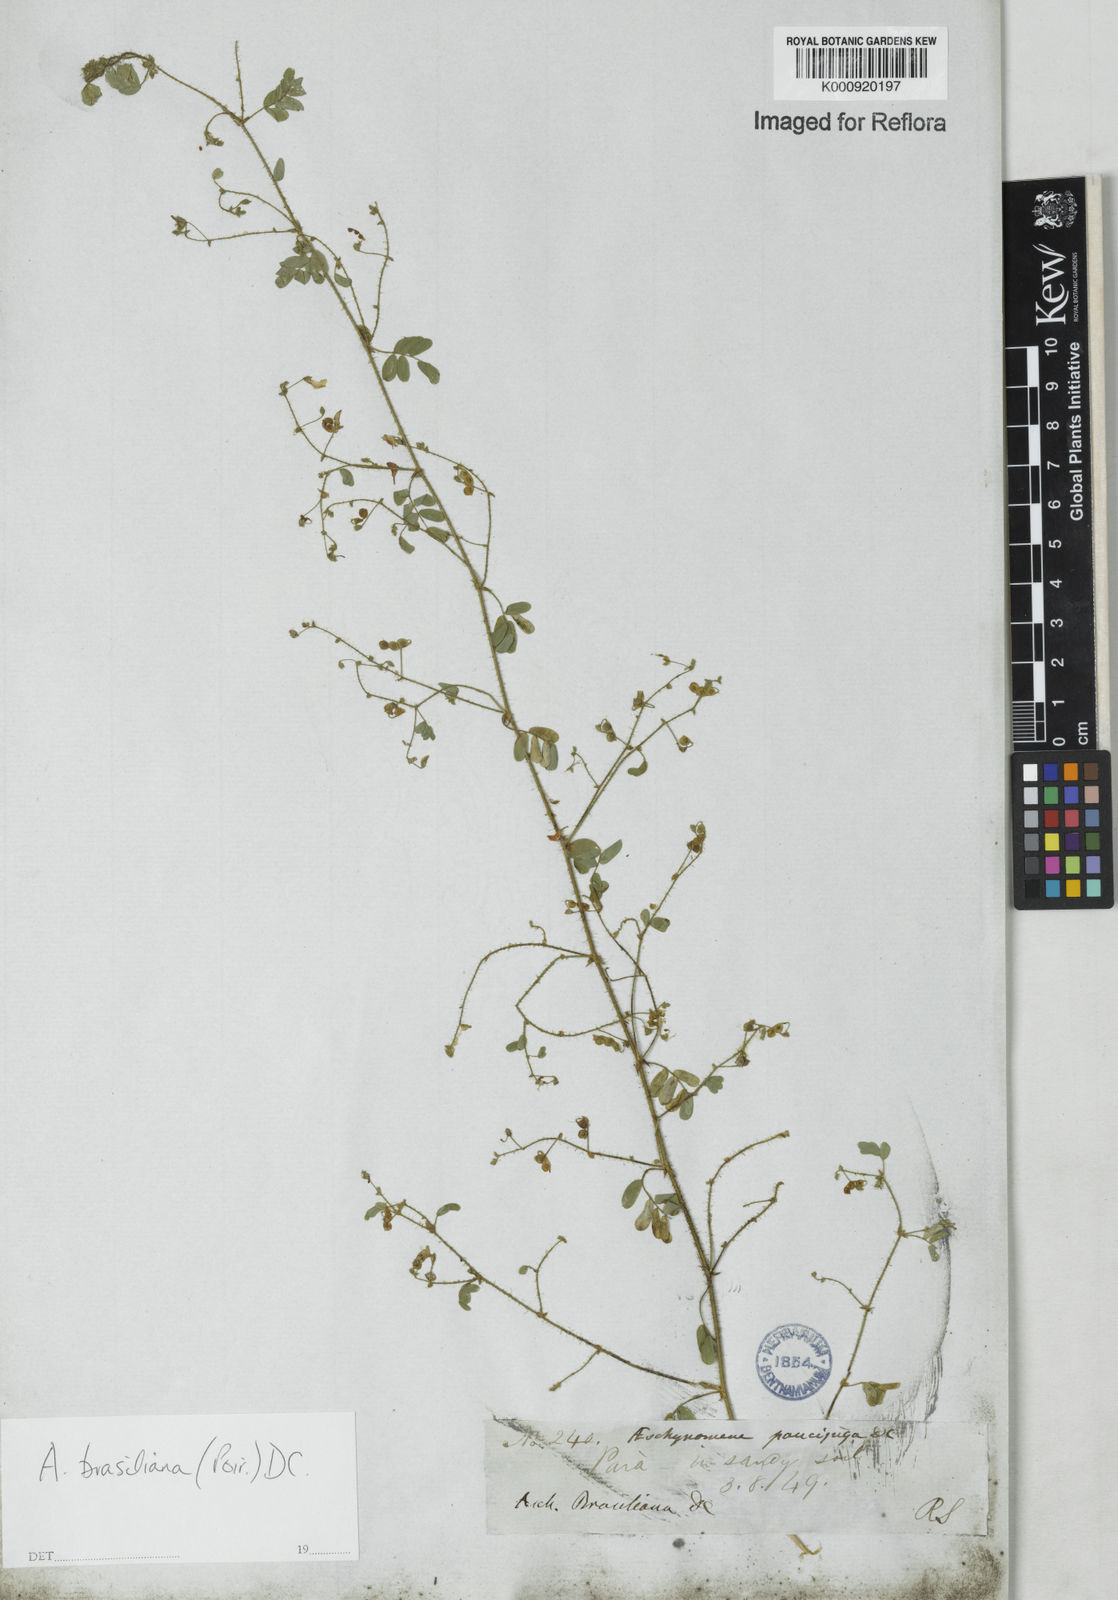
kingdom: Plantae
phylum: Tracheophyta
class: Magnoliopsida
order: Fabales
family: Fabaceae
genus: Ctenodon
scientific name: Ctenodon brasilianus
